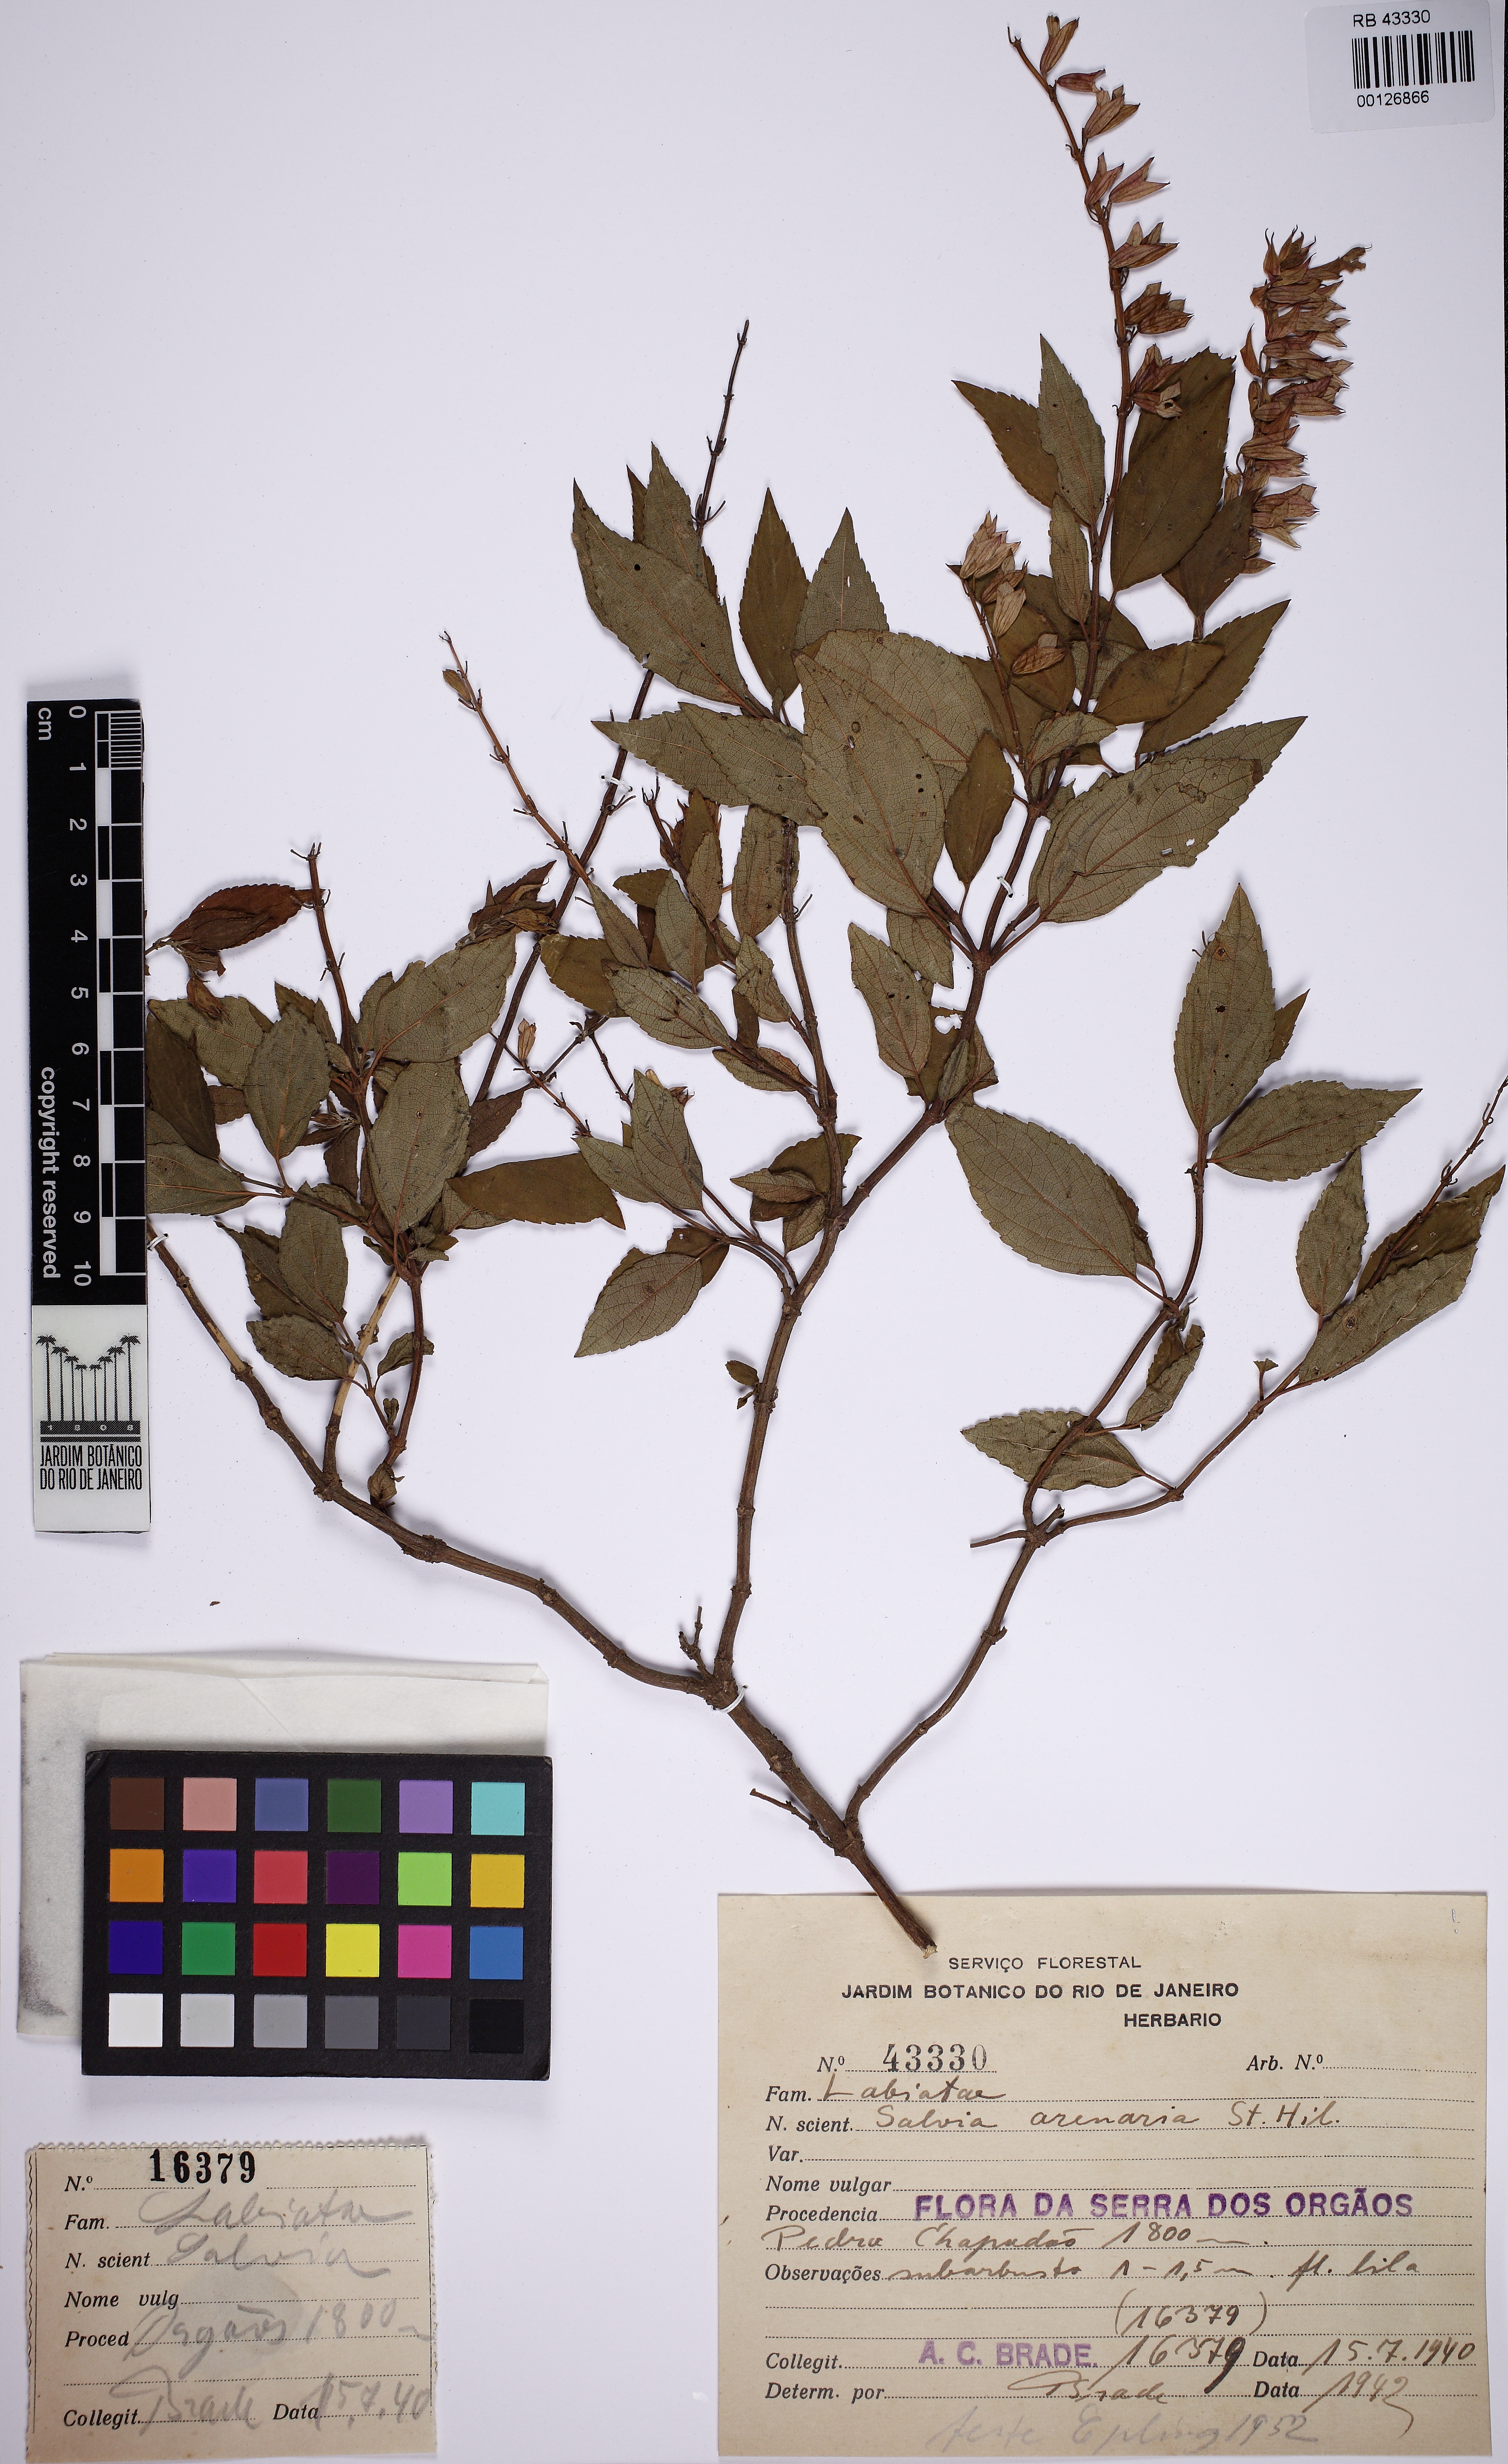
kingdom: Plantae
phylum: Tracheophyta
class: Magnoliopsida
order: Lamiales
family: Lamiaceae
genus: Salvia
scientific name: Salvia arenaria
